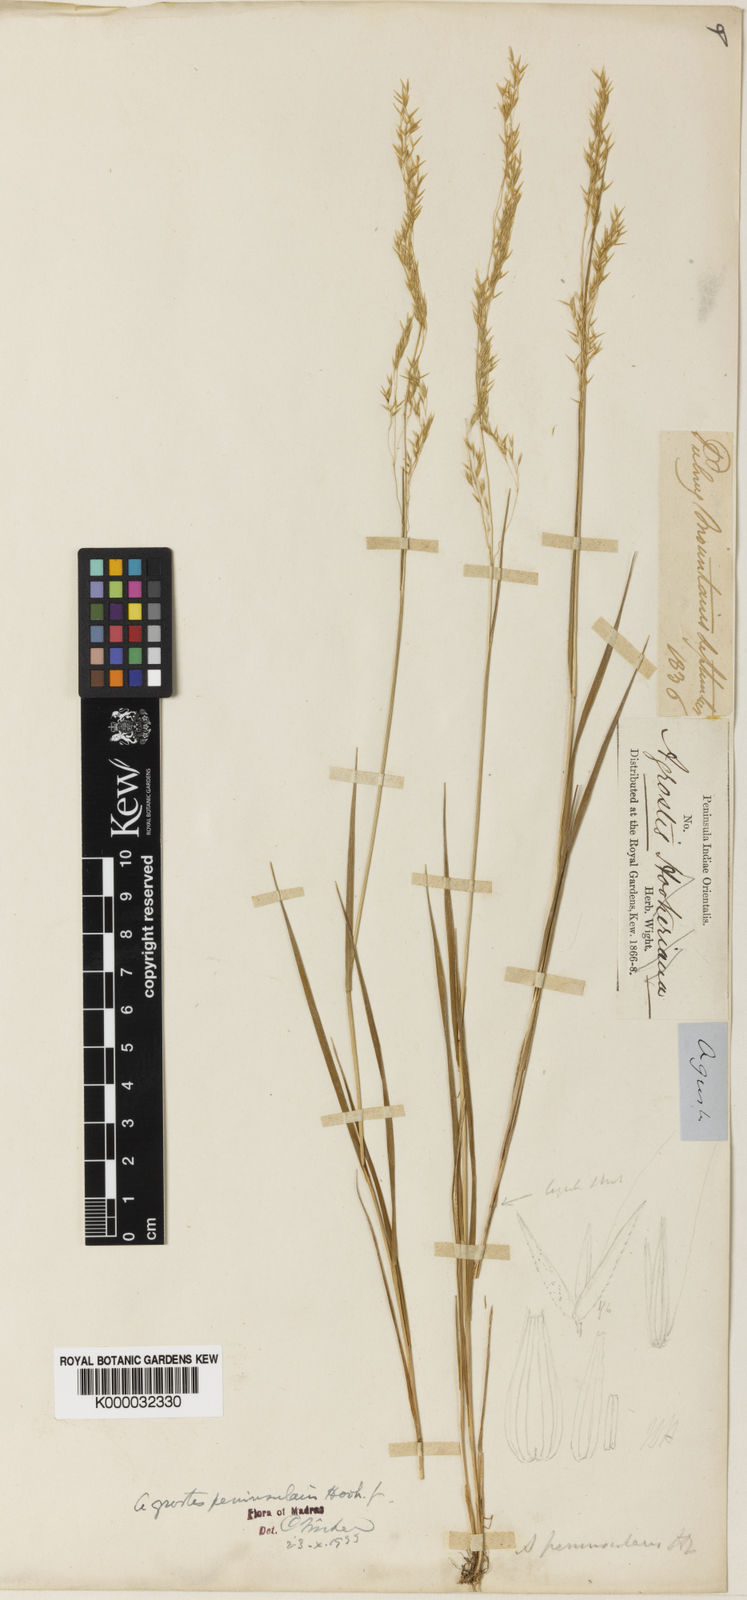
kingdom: Plantae
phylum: Tracheophyta
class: Liliopsida
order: Poales
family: Poaceae
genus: Agrostis
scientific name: Agrostis peninsularis
